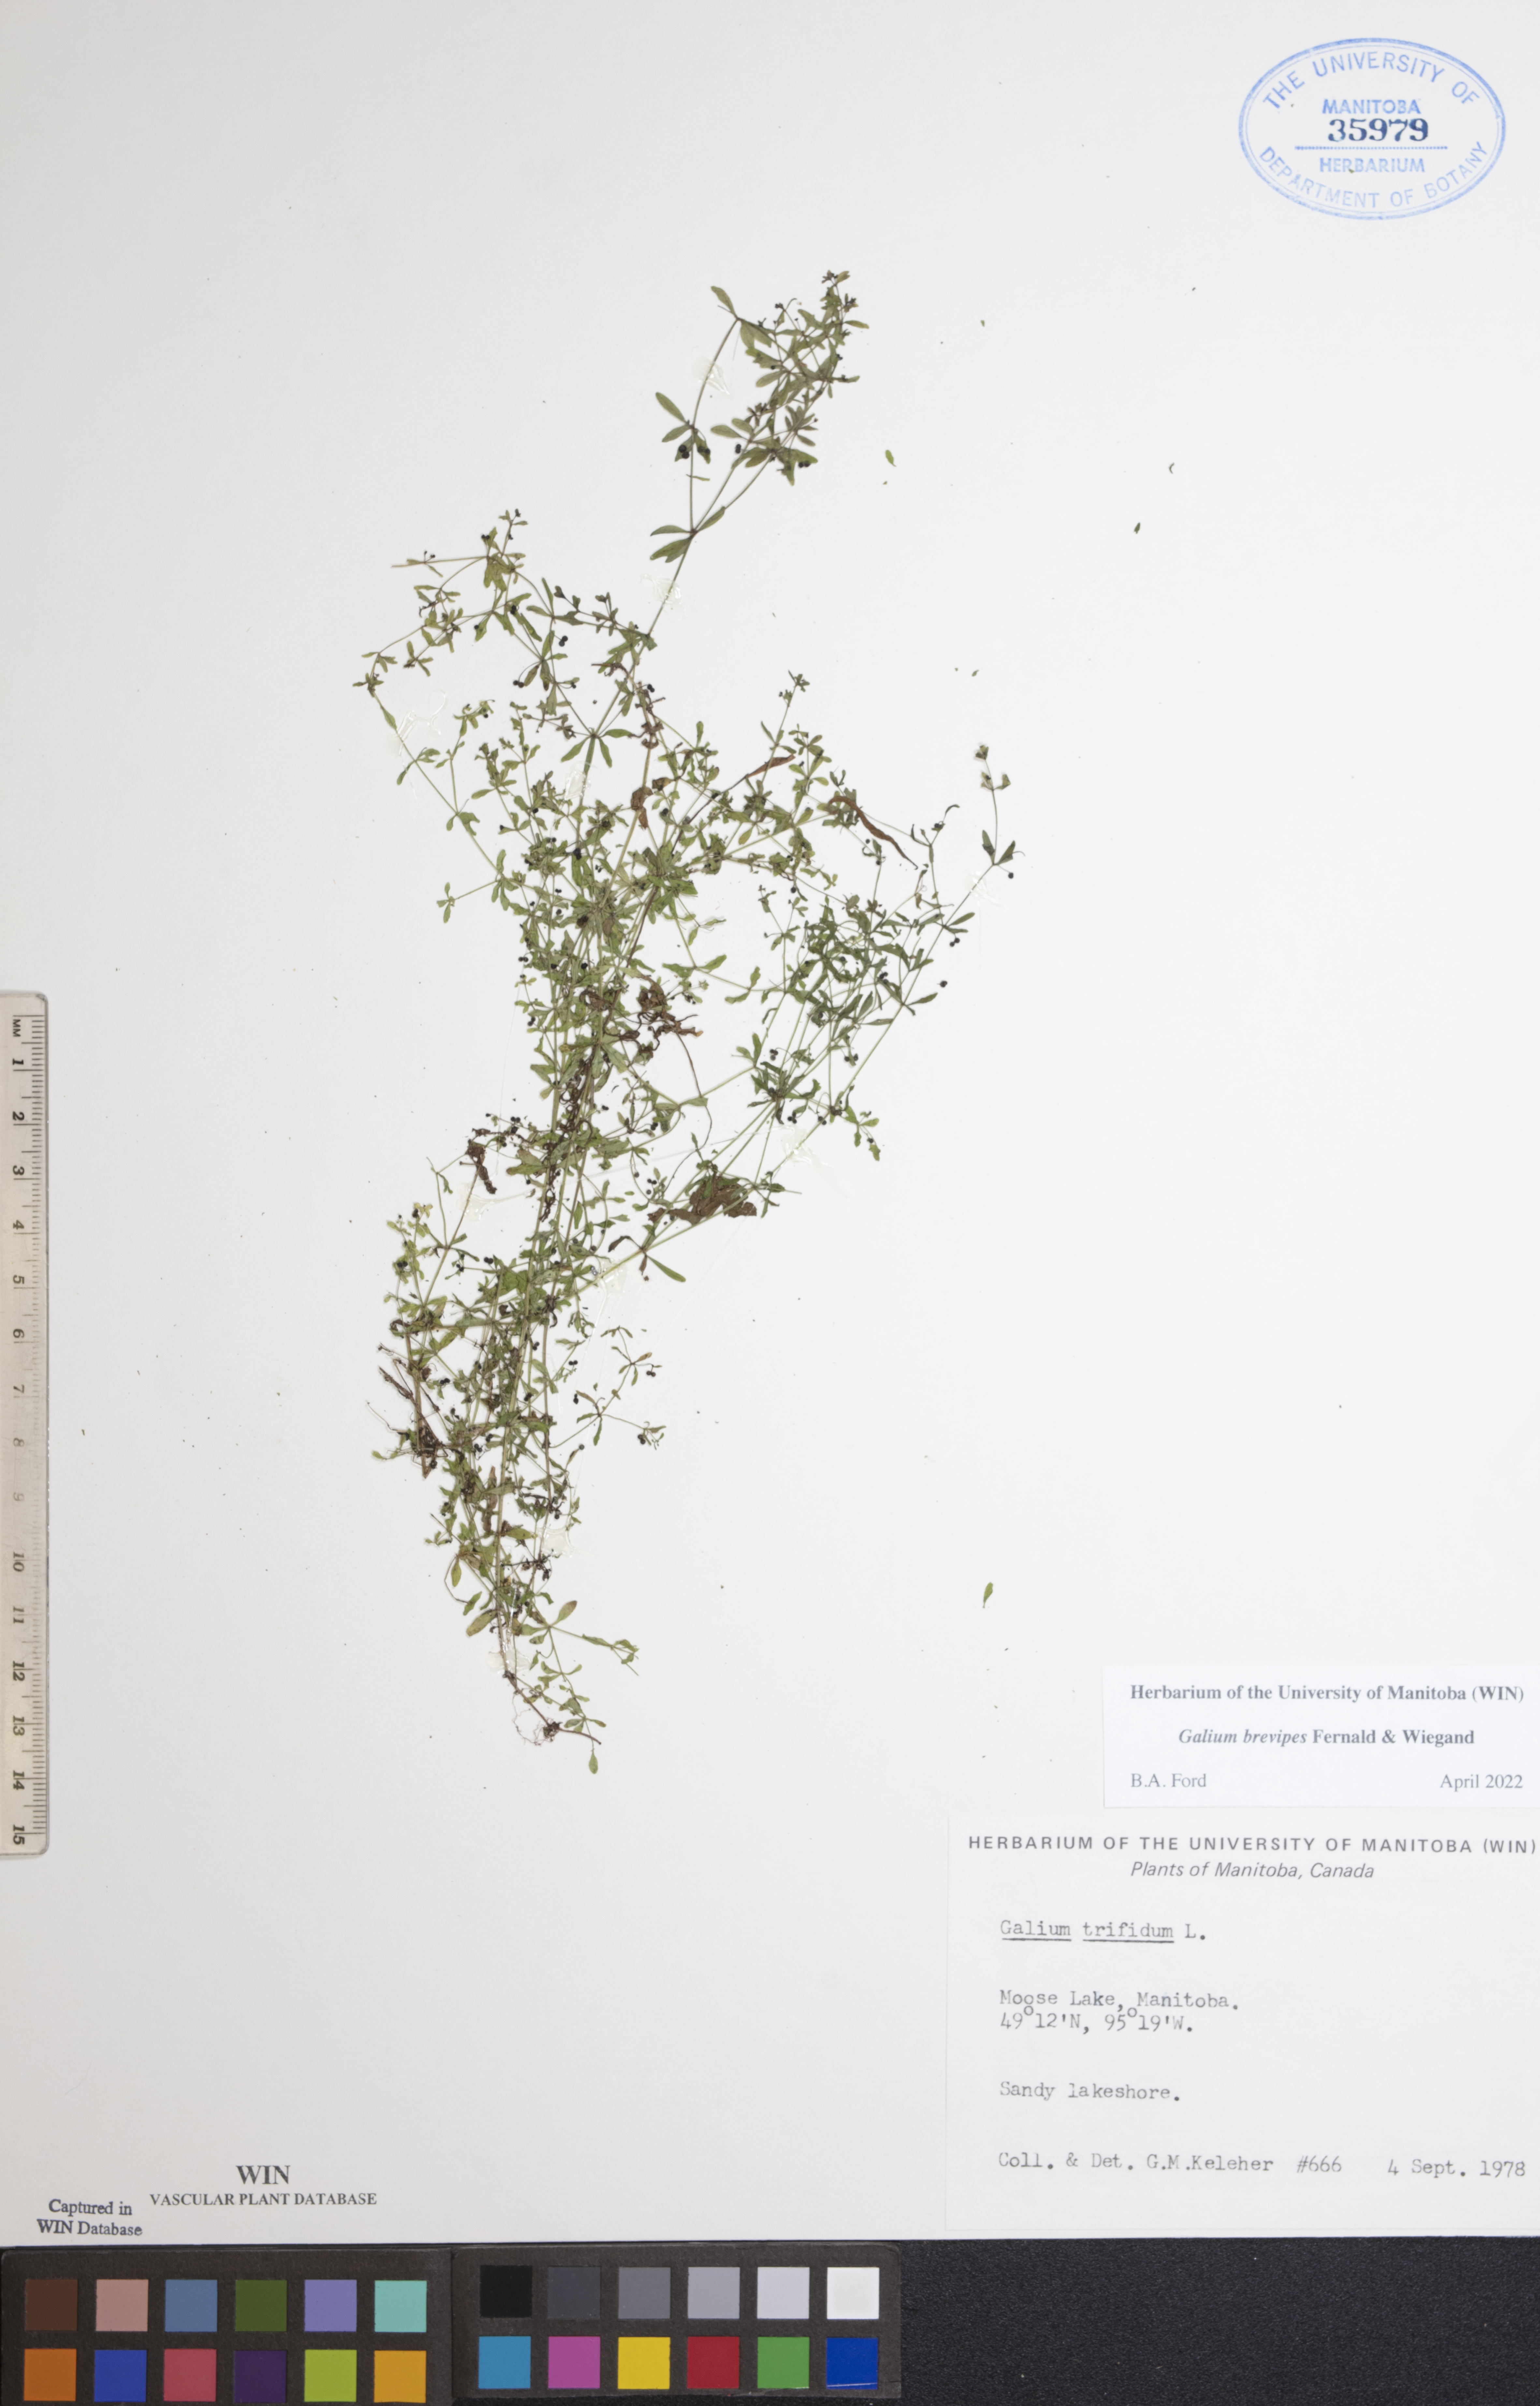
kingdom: Plantae
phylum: Tracheophyta
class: Magnoliopsida
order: Gentianales
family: Rubiaceae
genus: Galium
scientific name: Galium domingense
